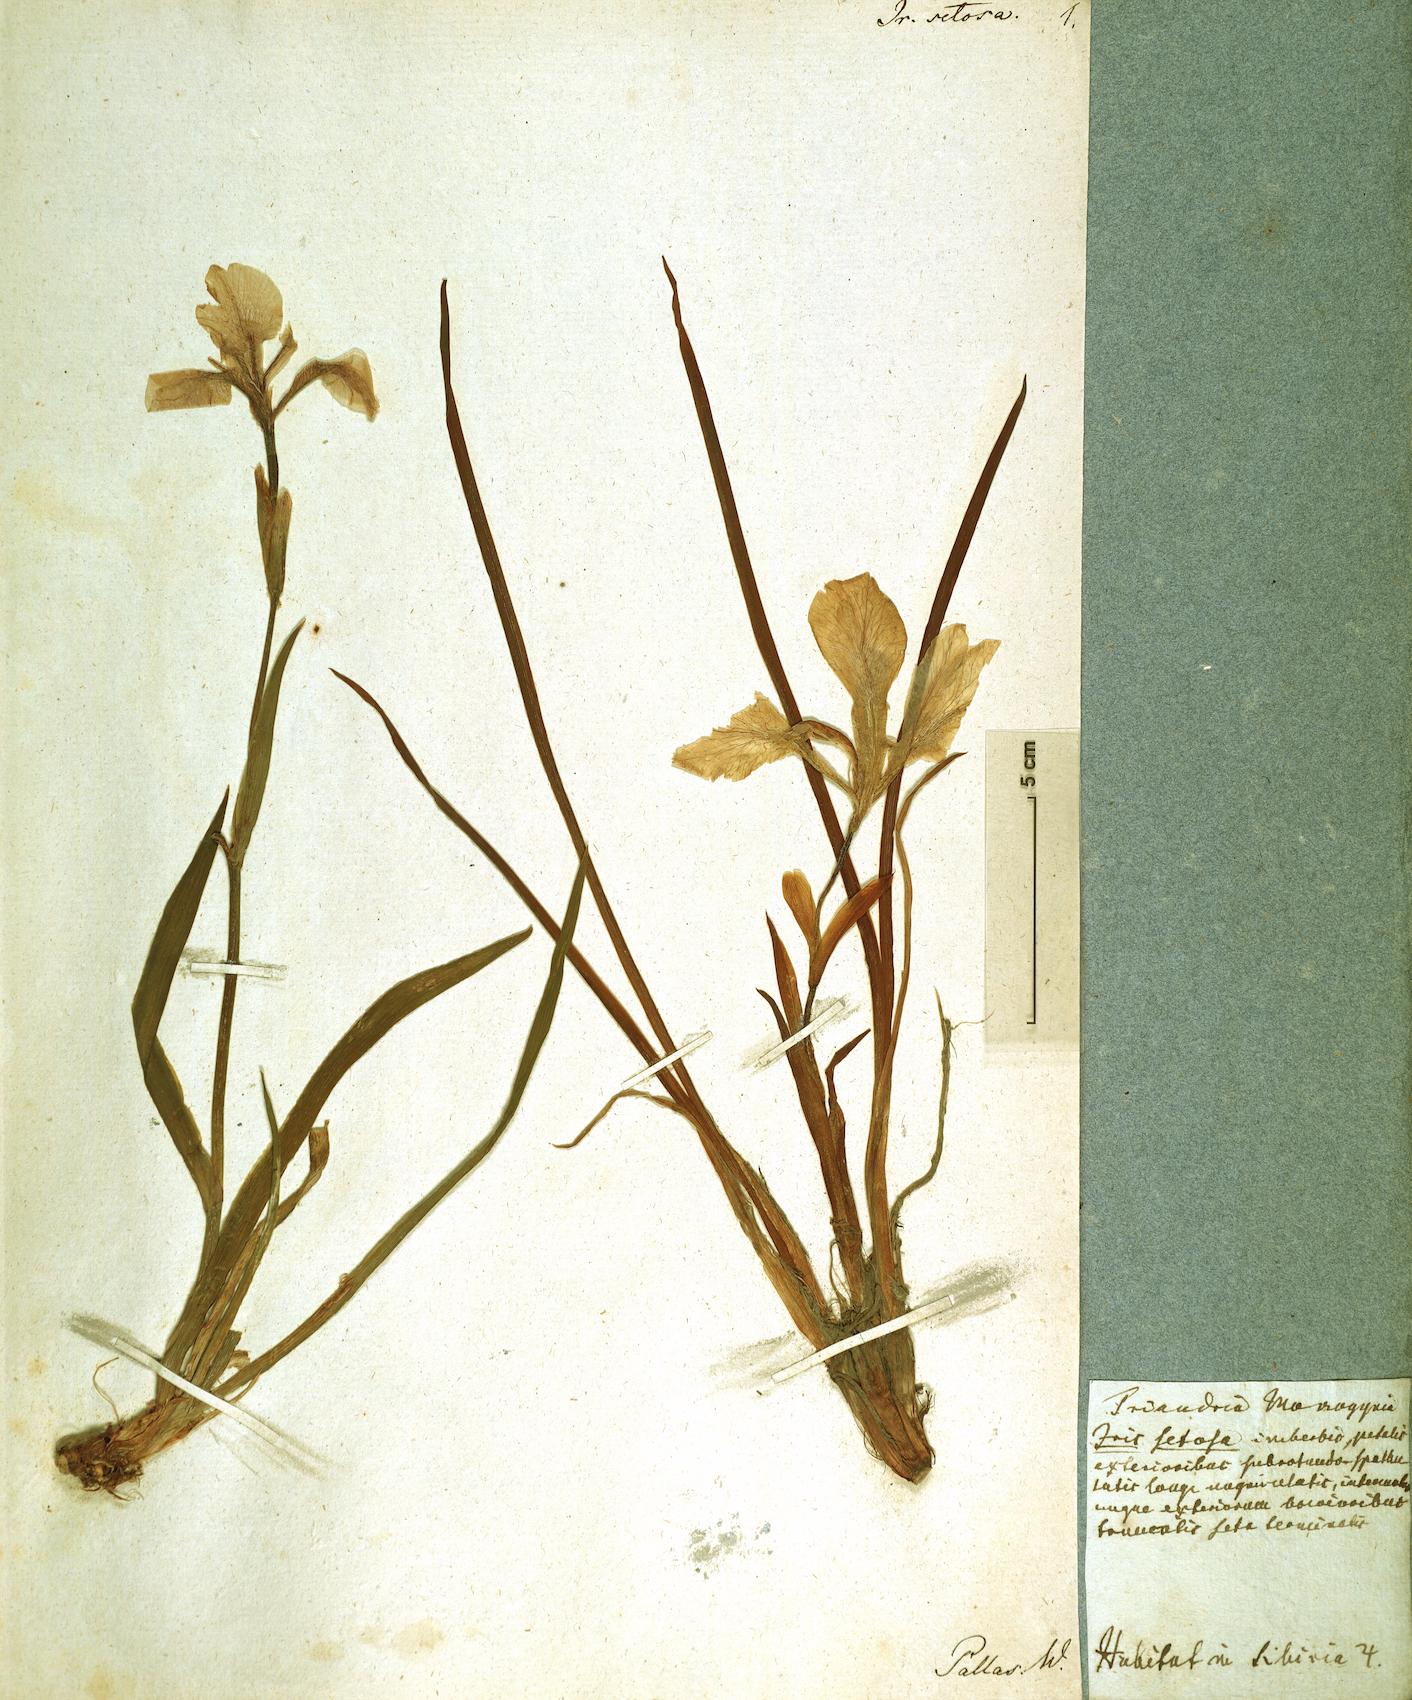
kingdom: Plantae
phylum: Tracheophyta
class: Liliopsida
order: Asparagales
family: Iridaceae
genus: Iris
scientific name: Iris setosa
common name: Arctic blue flag
